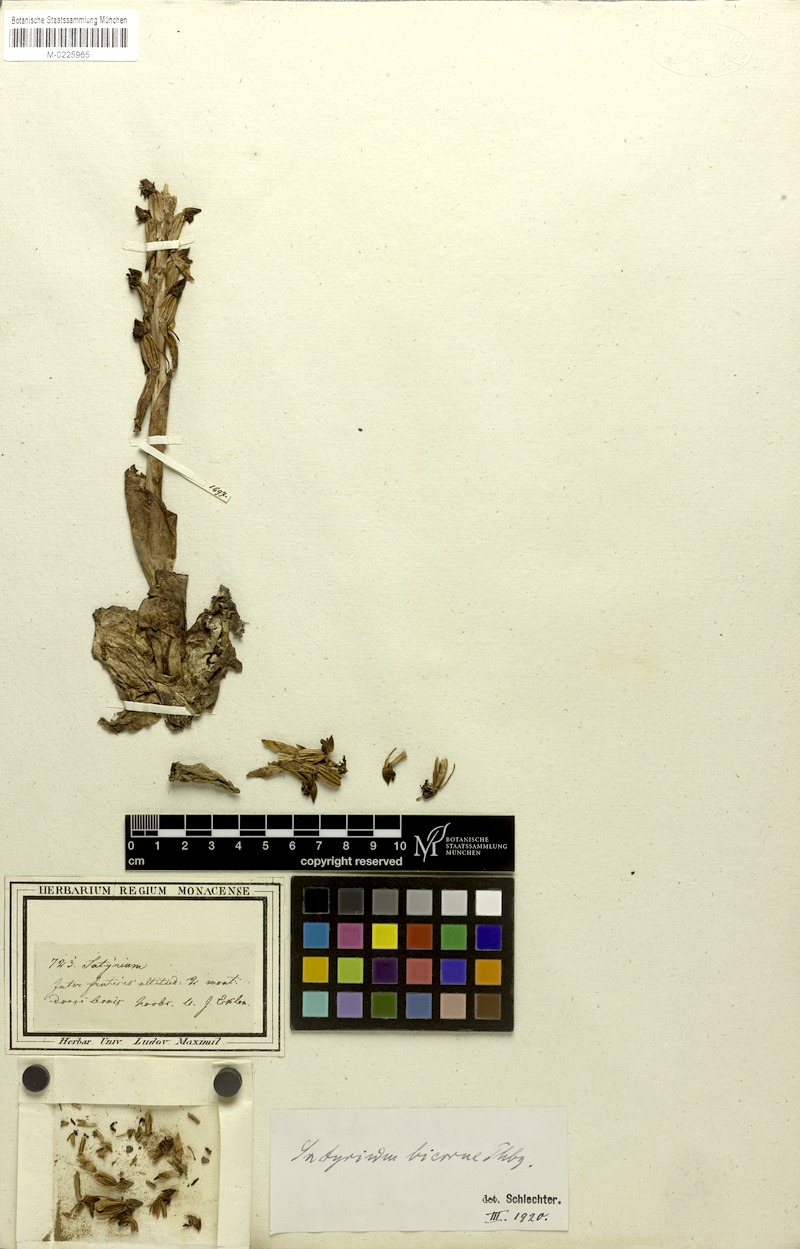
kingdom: Plantae
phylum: Tracheophyta
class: Liliopsida
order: Asparagales
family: Orchidaceae
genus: Satyrium
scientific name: Satyrium bicorne
